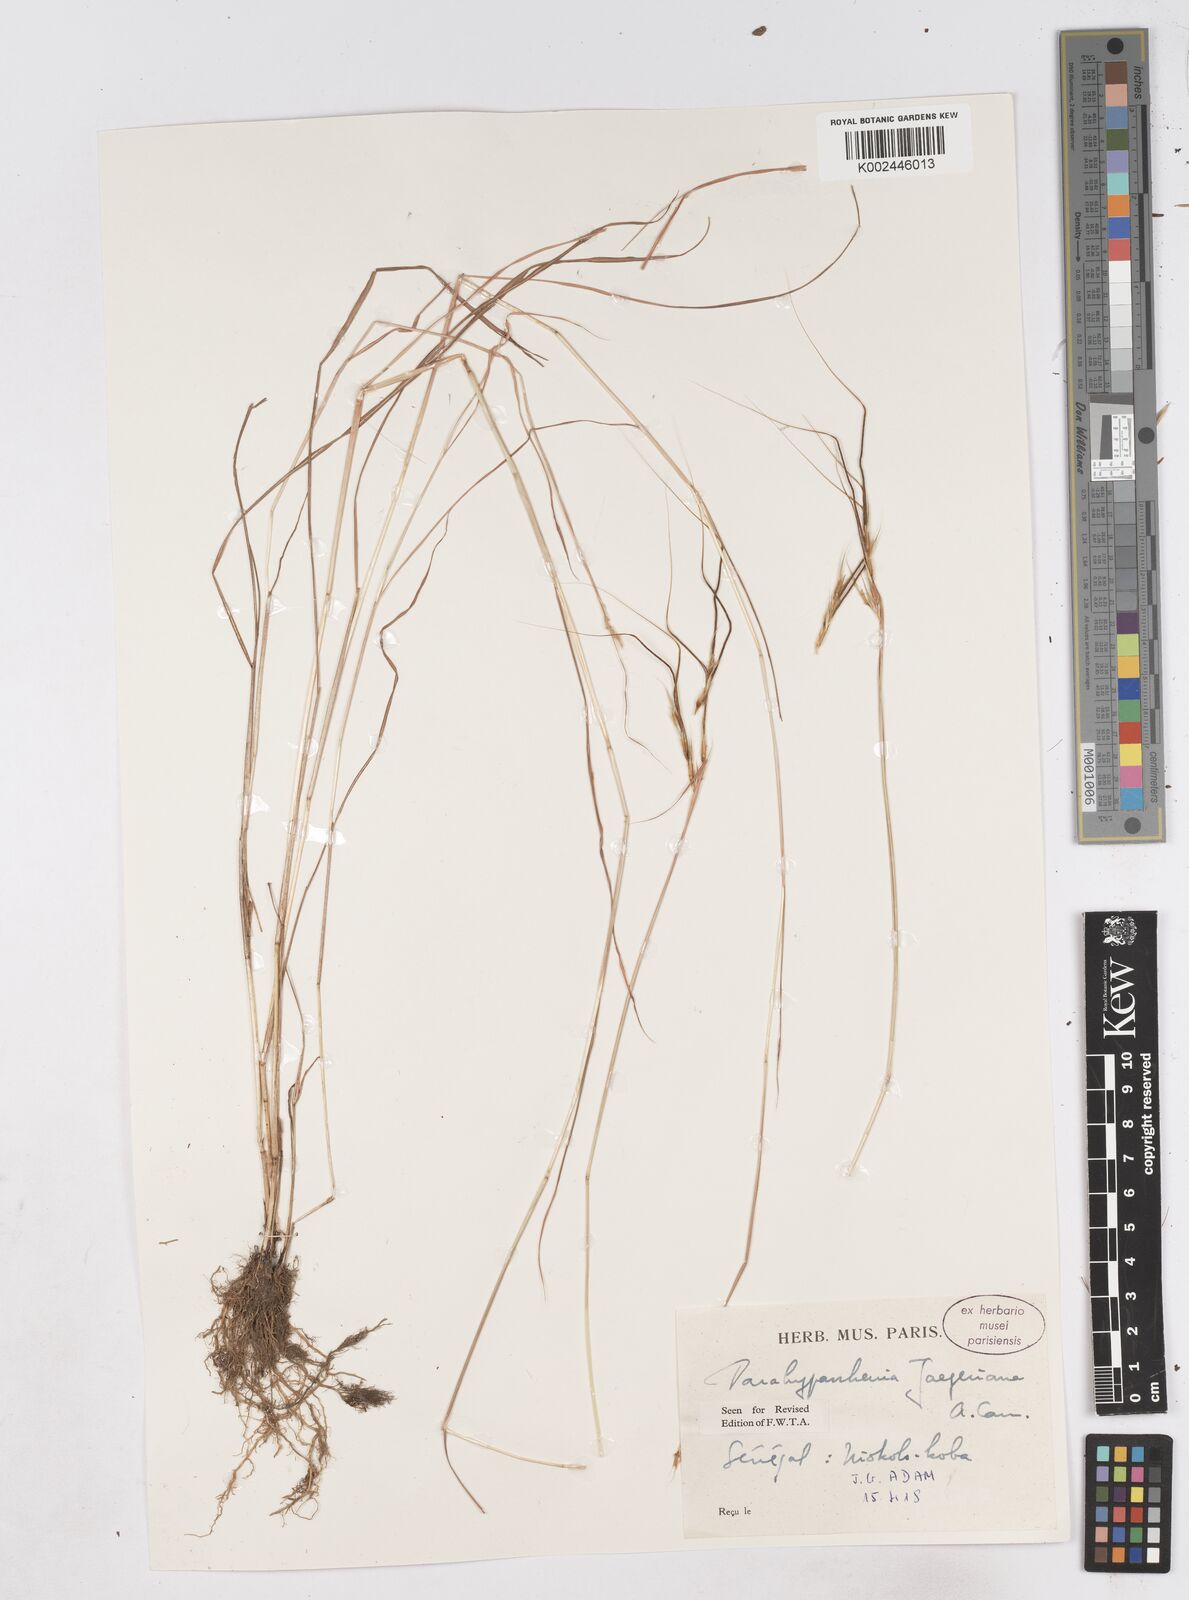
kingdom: Plantae
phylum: Tracheophyta
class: Liliopsida
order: Poales
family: Poaceae
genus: Parahyparrhenia
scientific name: Parahyparrhenia annua
